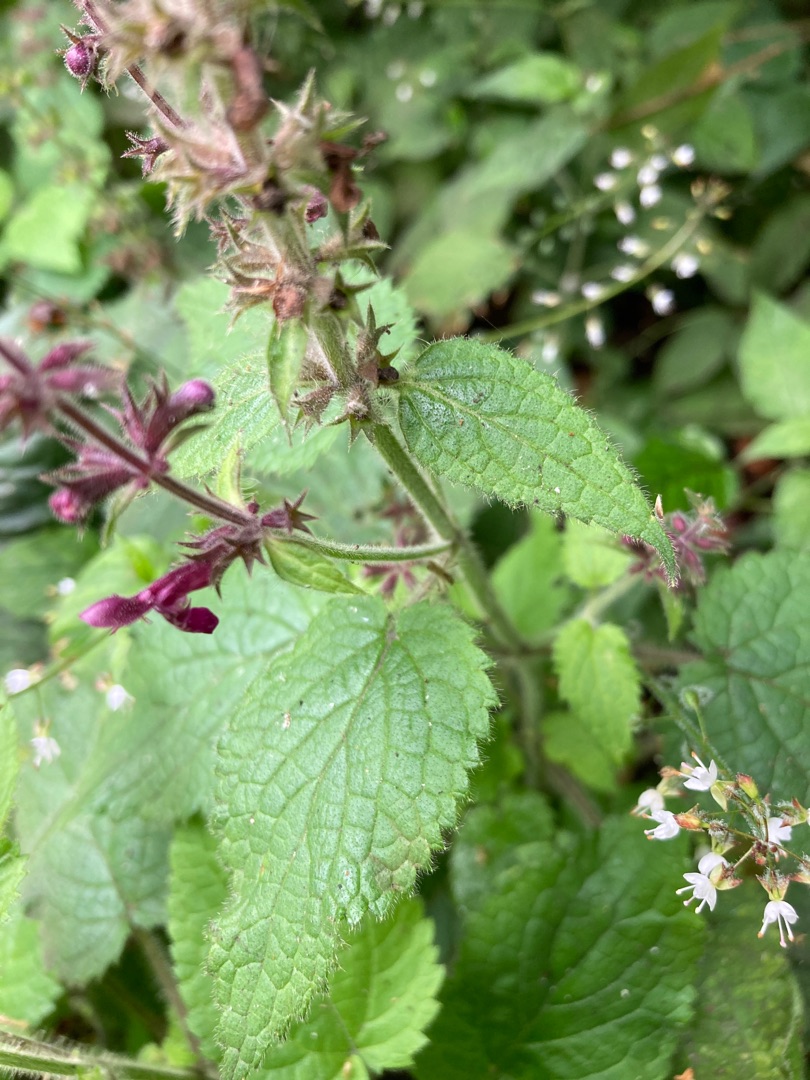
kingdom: Plantae
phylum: Tracheophyta
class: Magnoliopsida
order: Lamiales
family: Lamiaceae
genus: Stachys
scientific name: Stachys sylvatica
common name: Skov-galtetand
